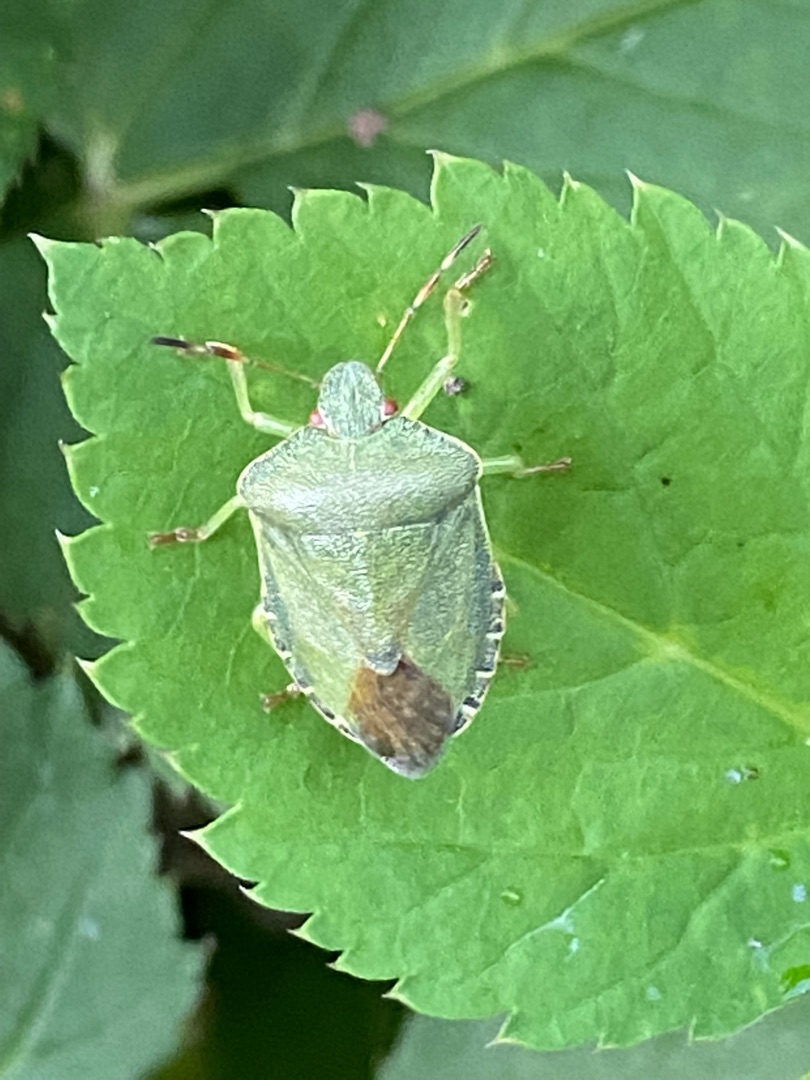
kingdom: Animalia
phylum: Arthropoda
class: Insecta
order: Hemiptera
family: Pentatomidae
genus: Palomena
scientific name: Palomena prasina
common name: Grøn bredtæge
